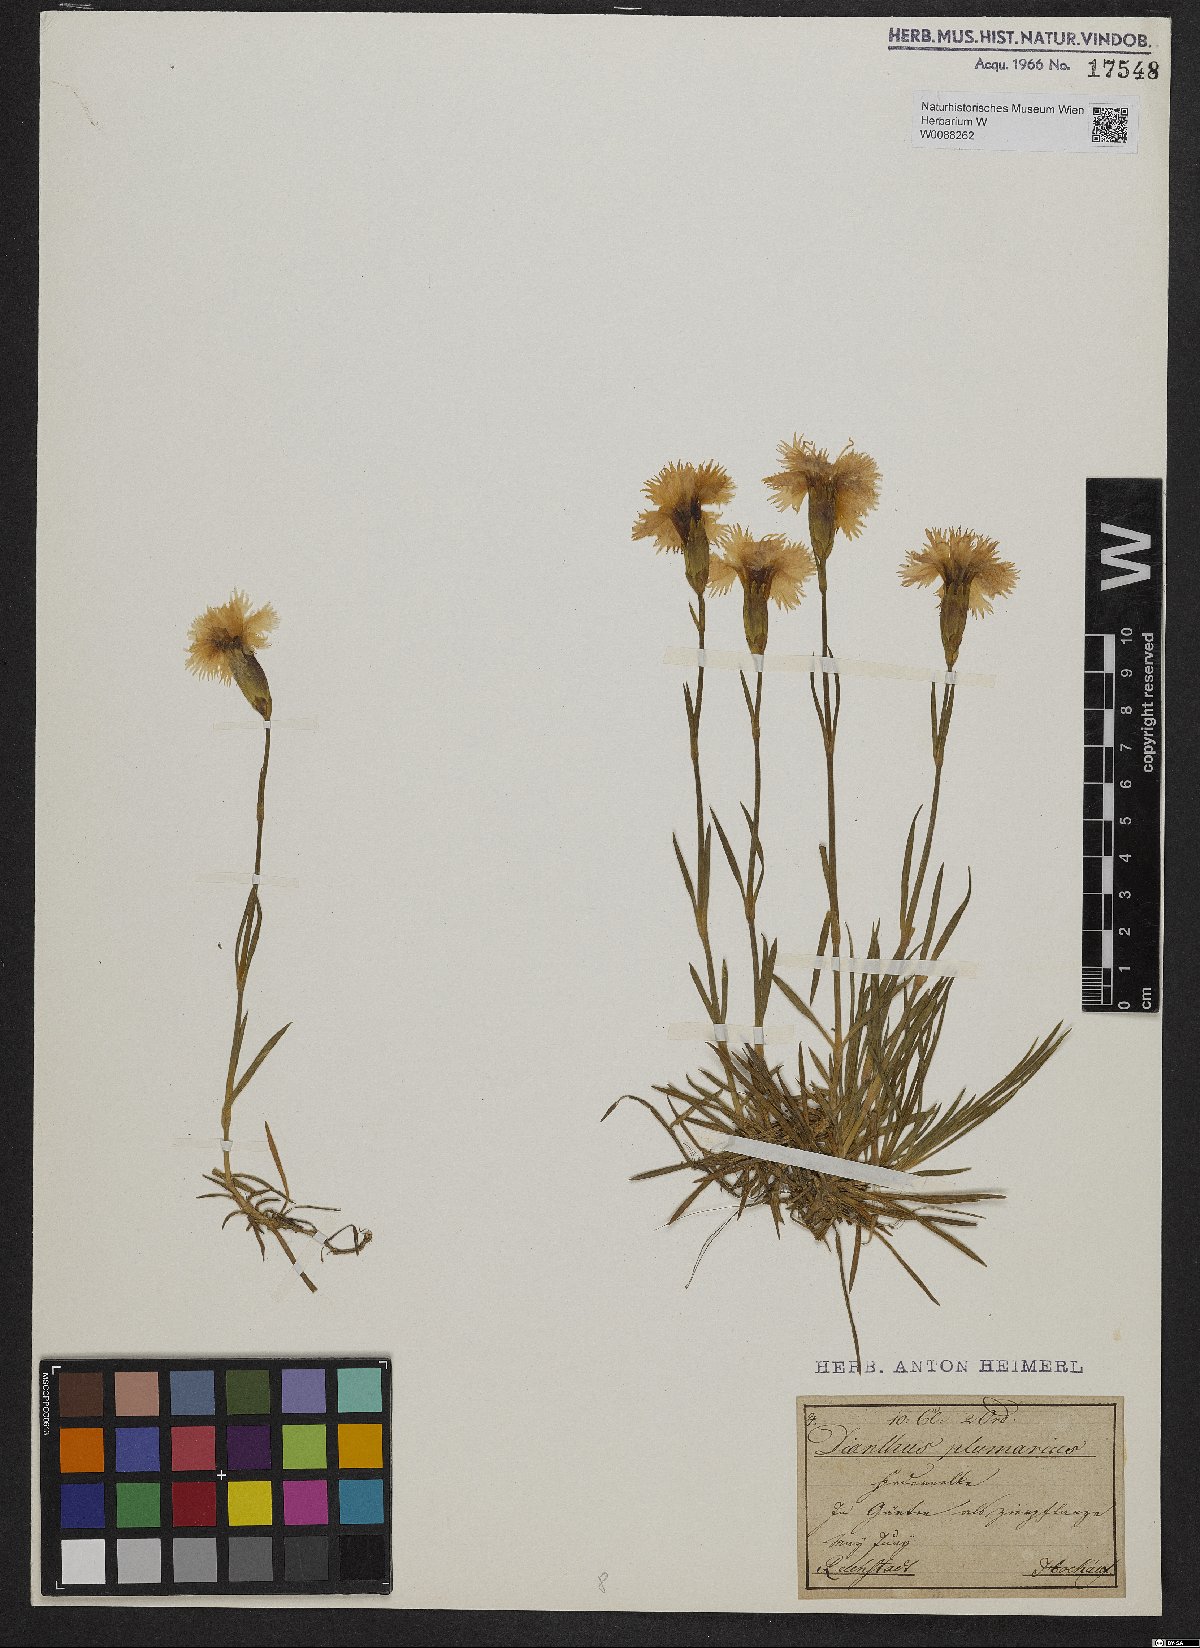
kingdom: Plantae
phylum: Tracheophyta
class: Magnoliopsida
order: Caryophyllales
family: Caryophyllaceae
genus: Dianthus
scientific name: Dianthus plumarius
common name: Pink
